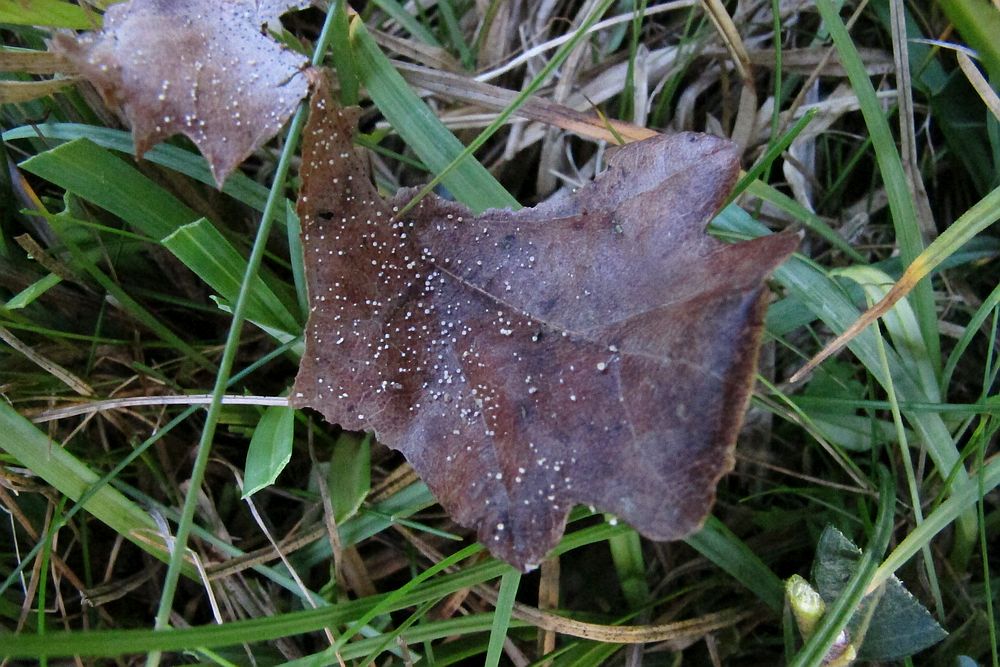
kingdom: Fungi
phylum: Ascomycota
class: Leotiomycetes
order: Helotiales
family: Lachnaceae
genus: Incrucipulum
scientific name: Incrucipulum ciliare
